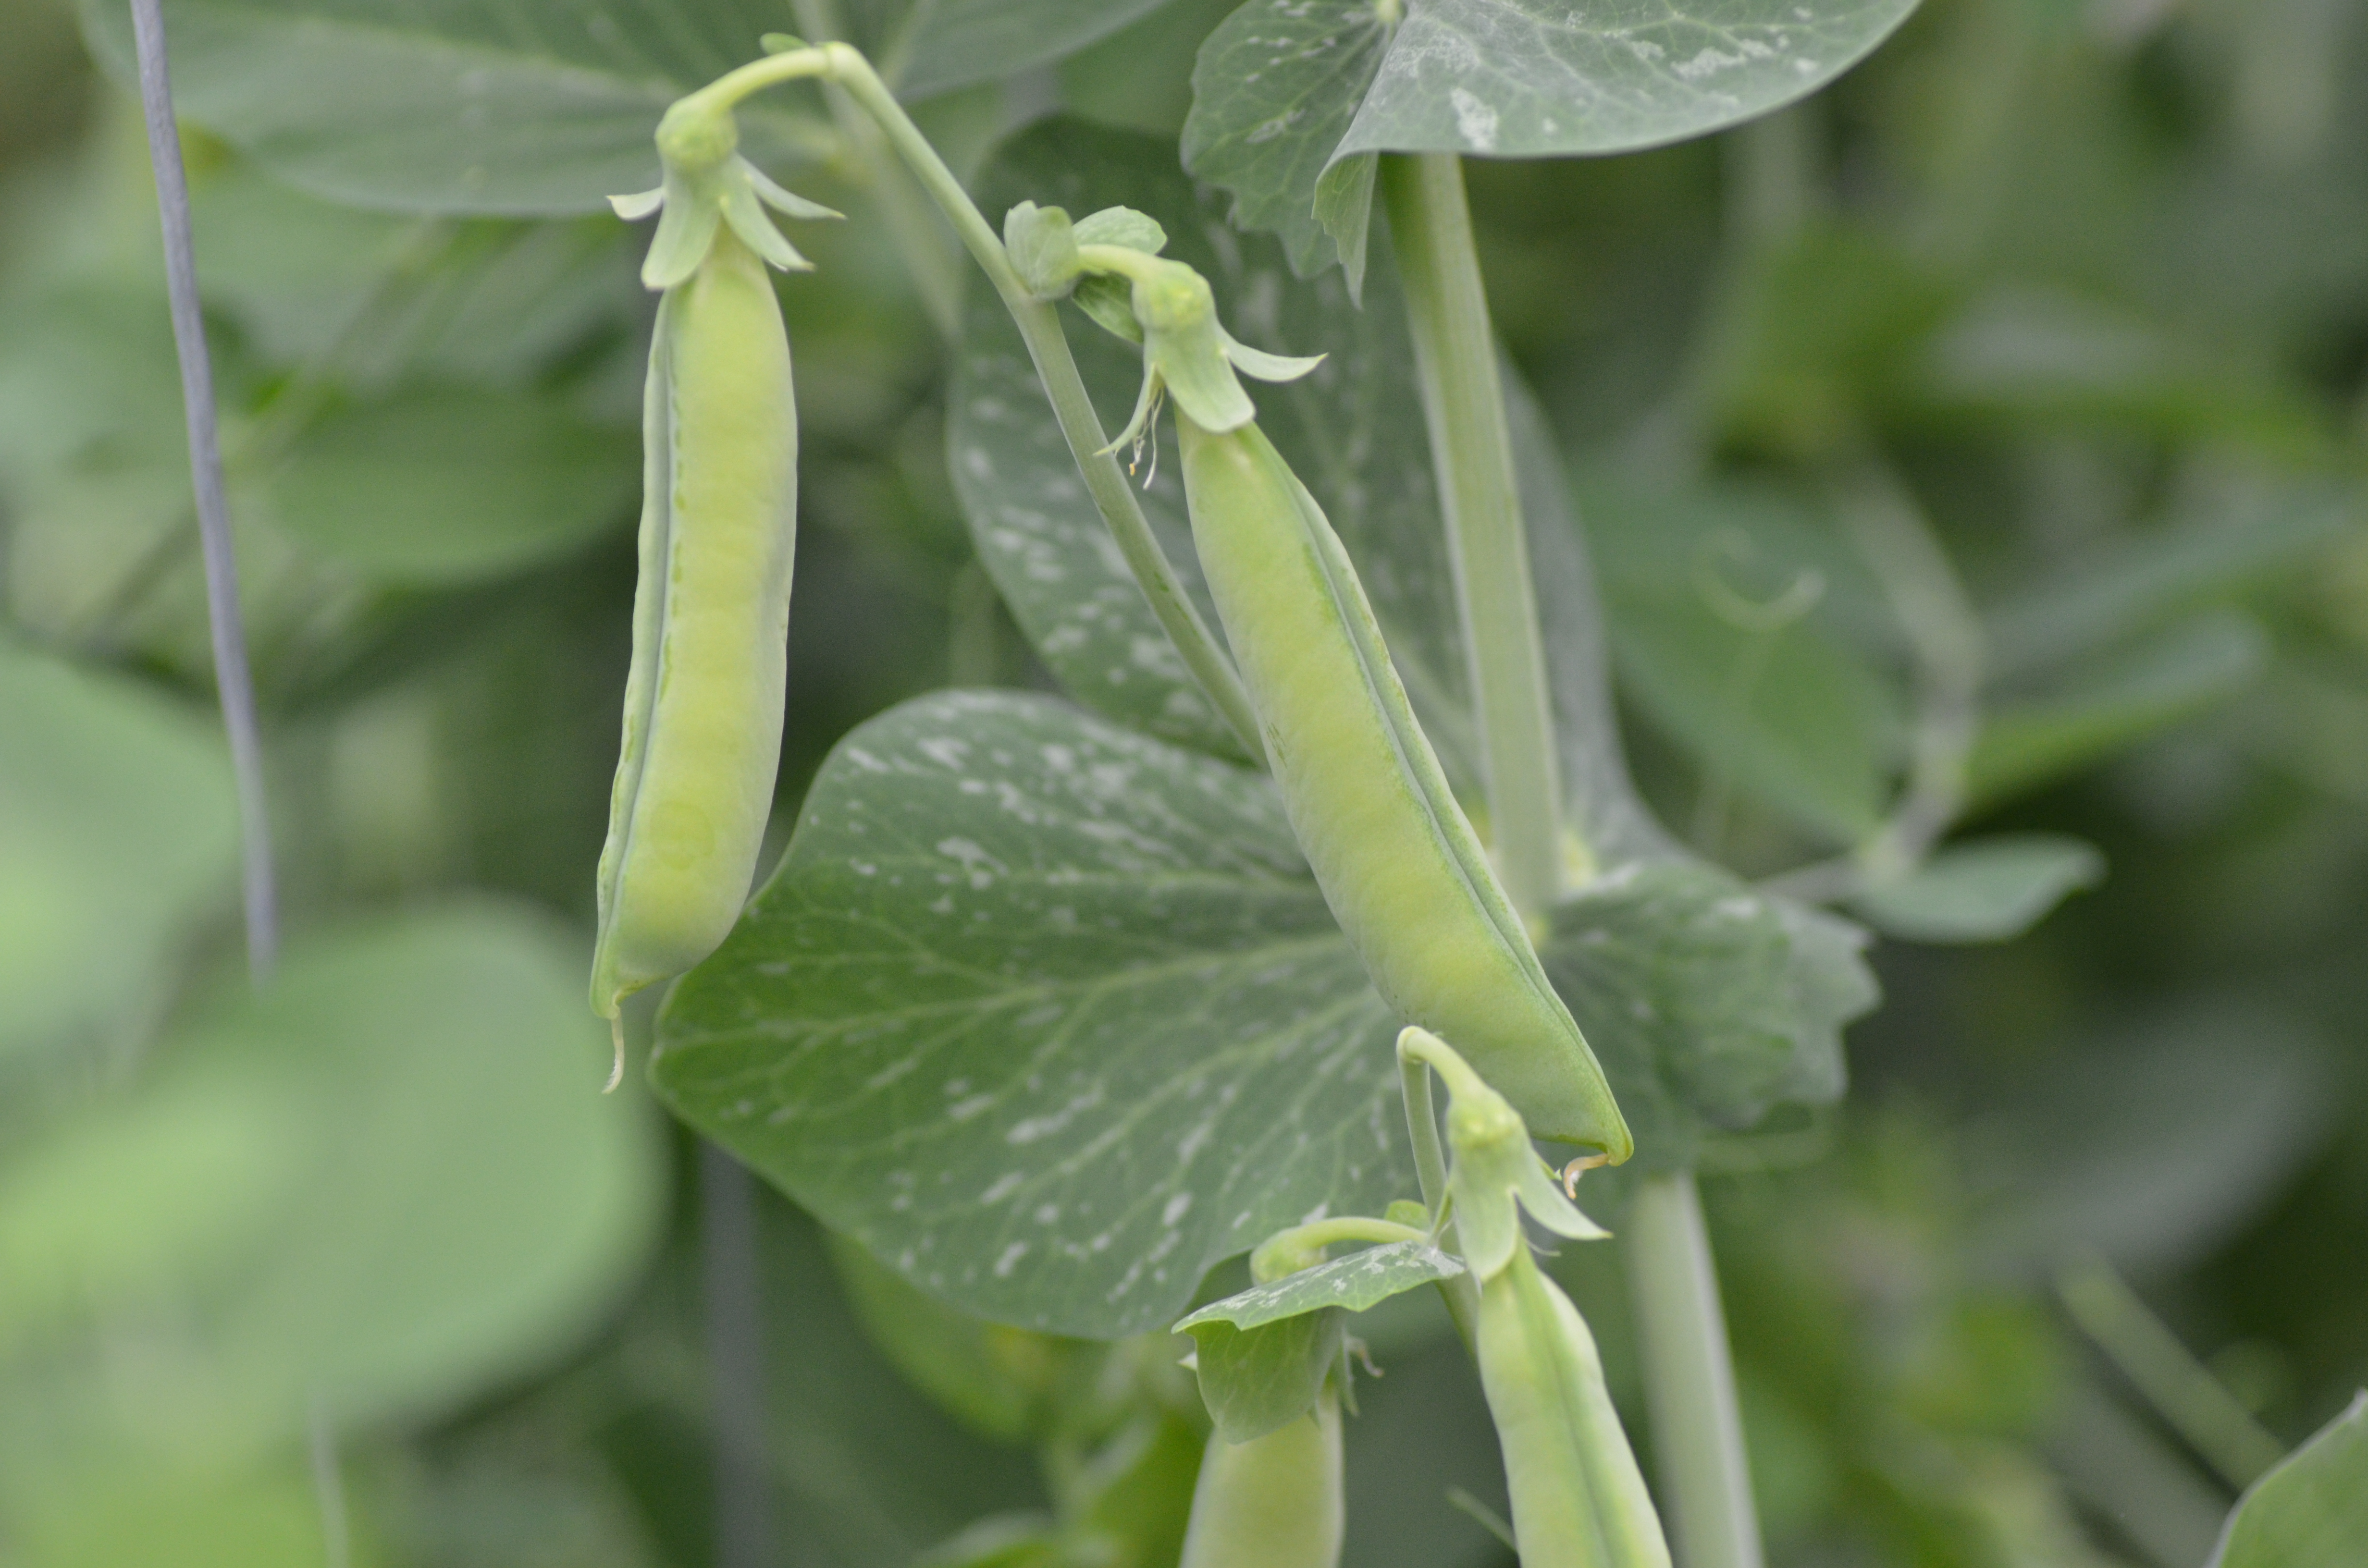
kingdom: Plantae
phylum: Tracheophyta
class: Magnoliopsida
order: Fabales
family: Fabaceae
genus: Lathyrus
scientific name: Lathyrus oleraceus
